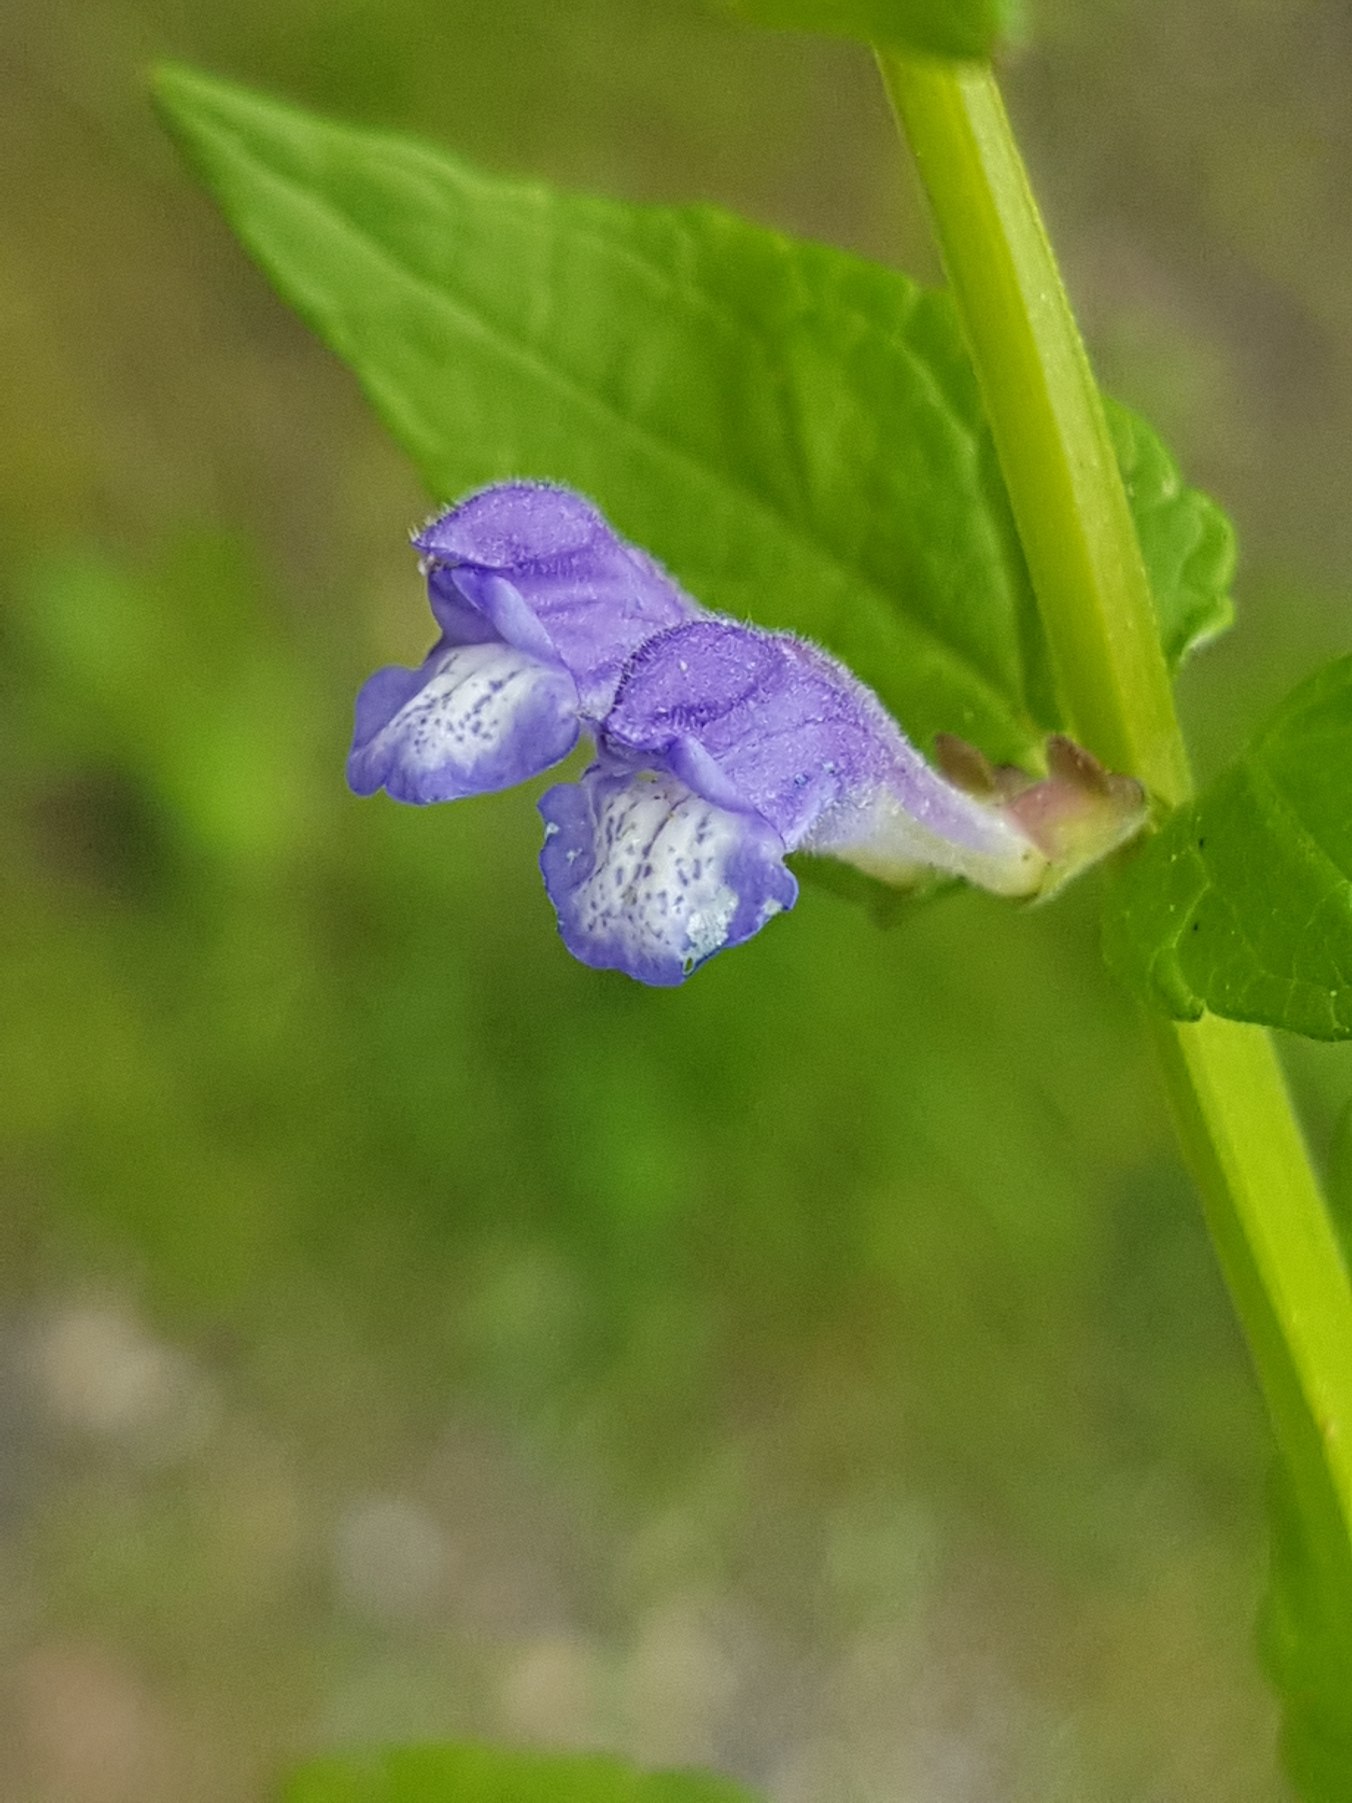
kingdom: Plantae
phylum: Tracheophyta
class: Magnoliopsida
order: Lamiales
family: Lamiaceae
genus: Scutellaria
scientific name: Scutellaria galericulata
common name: Almindelig skjolddrager
